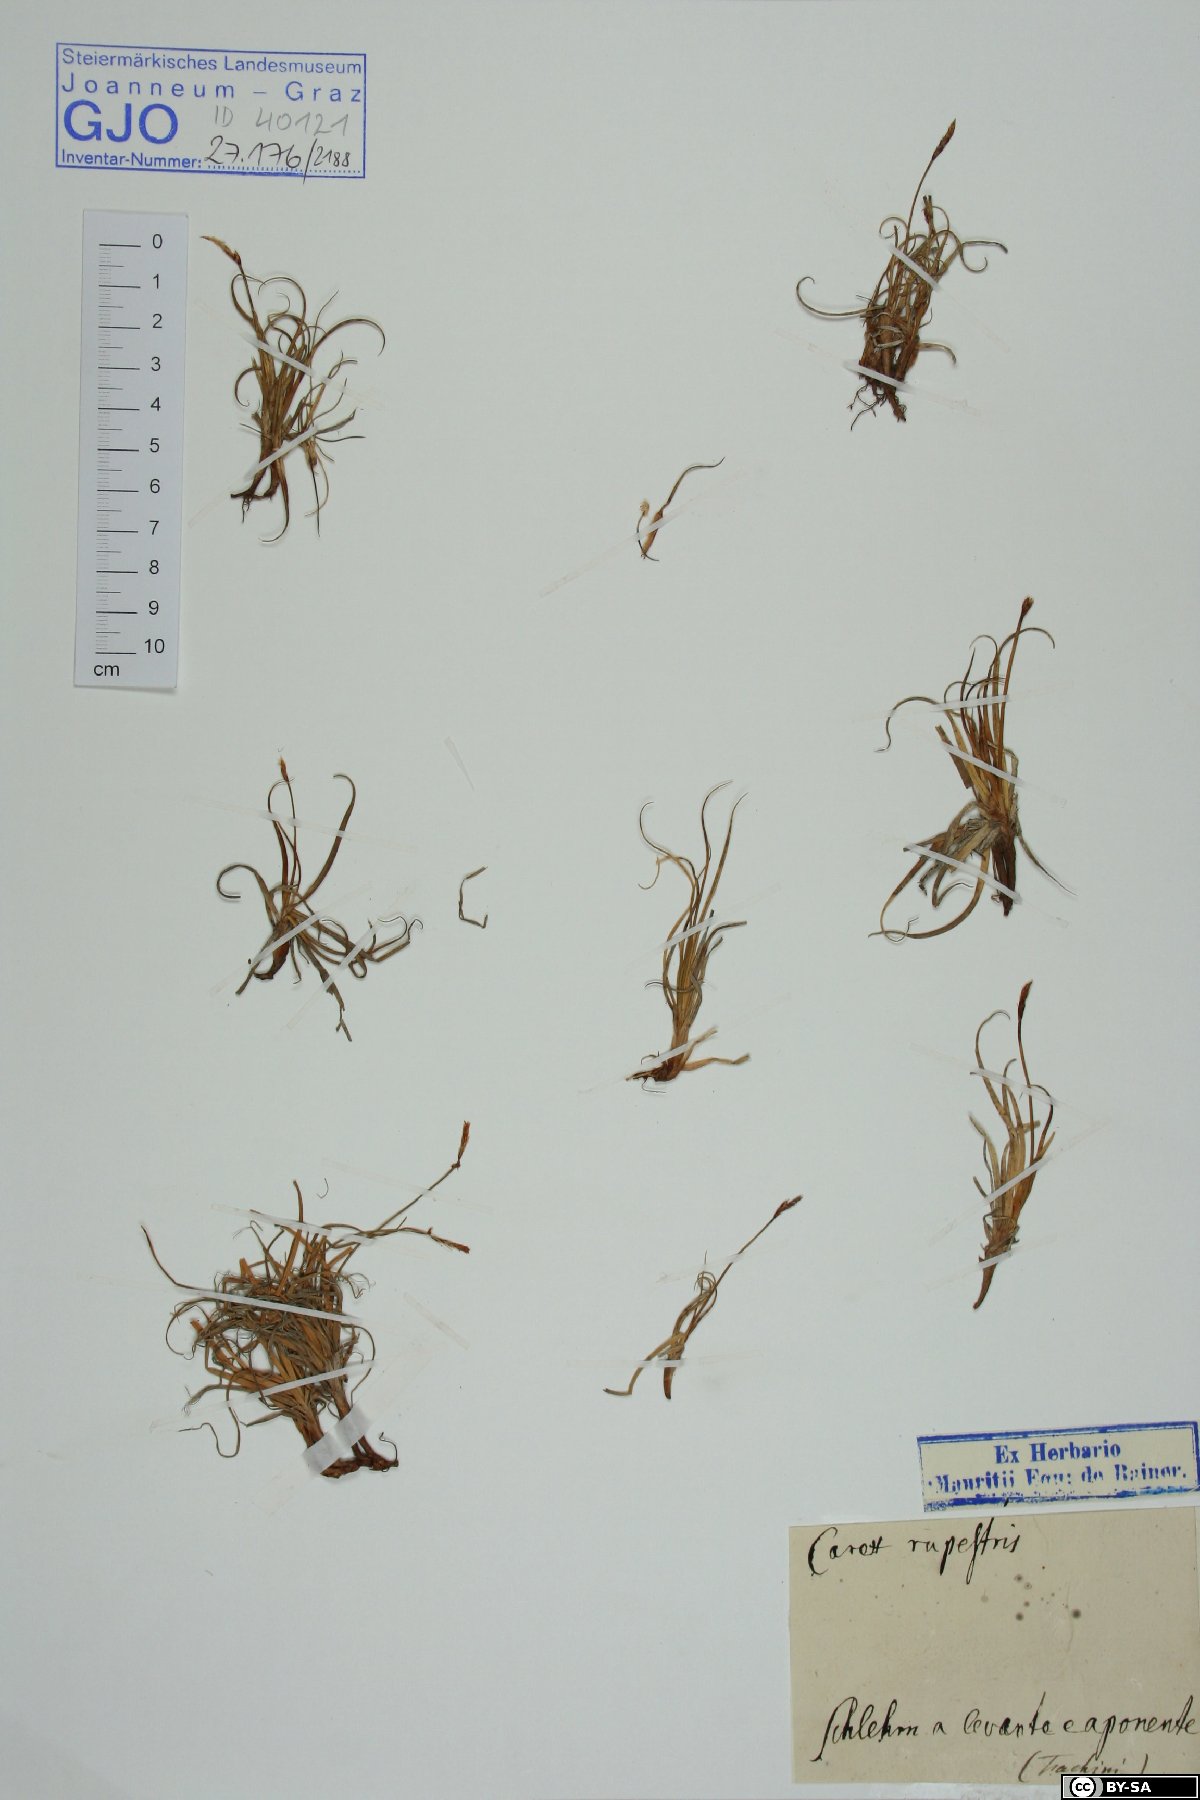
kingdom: Plantae
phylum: Tracheophyta
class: Liliopsida
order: Poales
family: Cyperaceae
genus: Carex
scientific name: Carex rupestris
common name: Rock sedge
